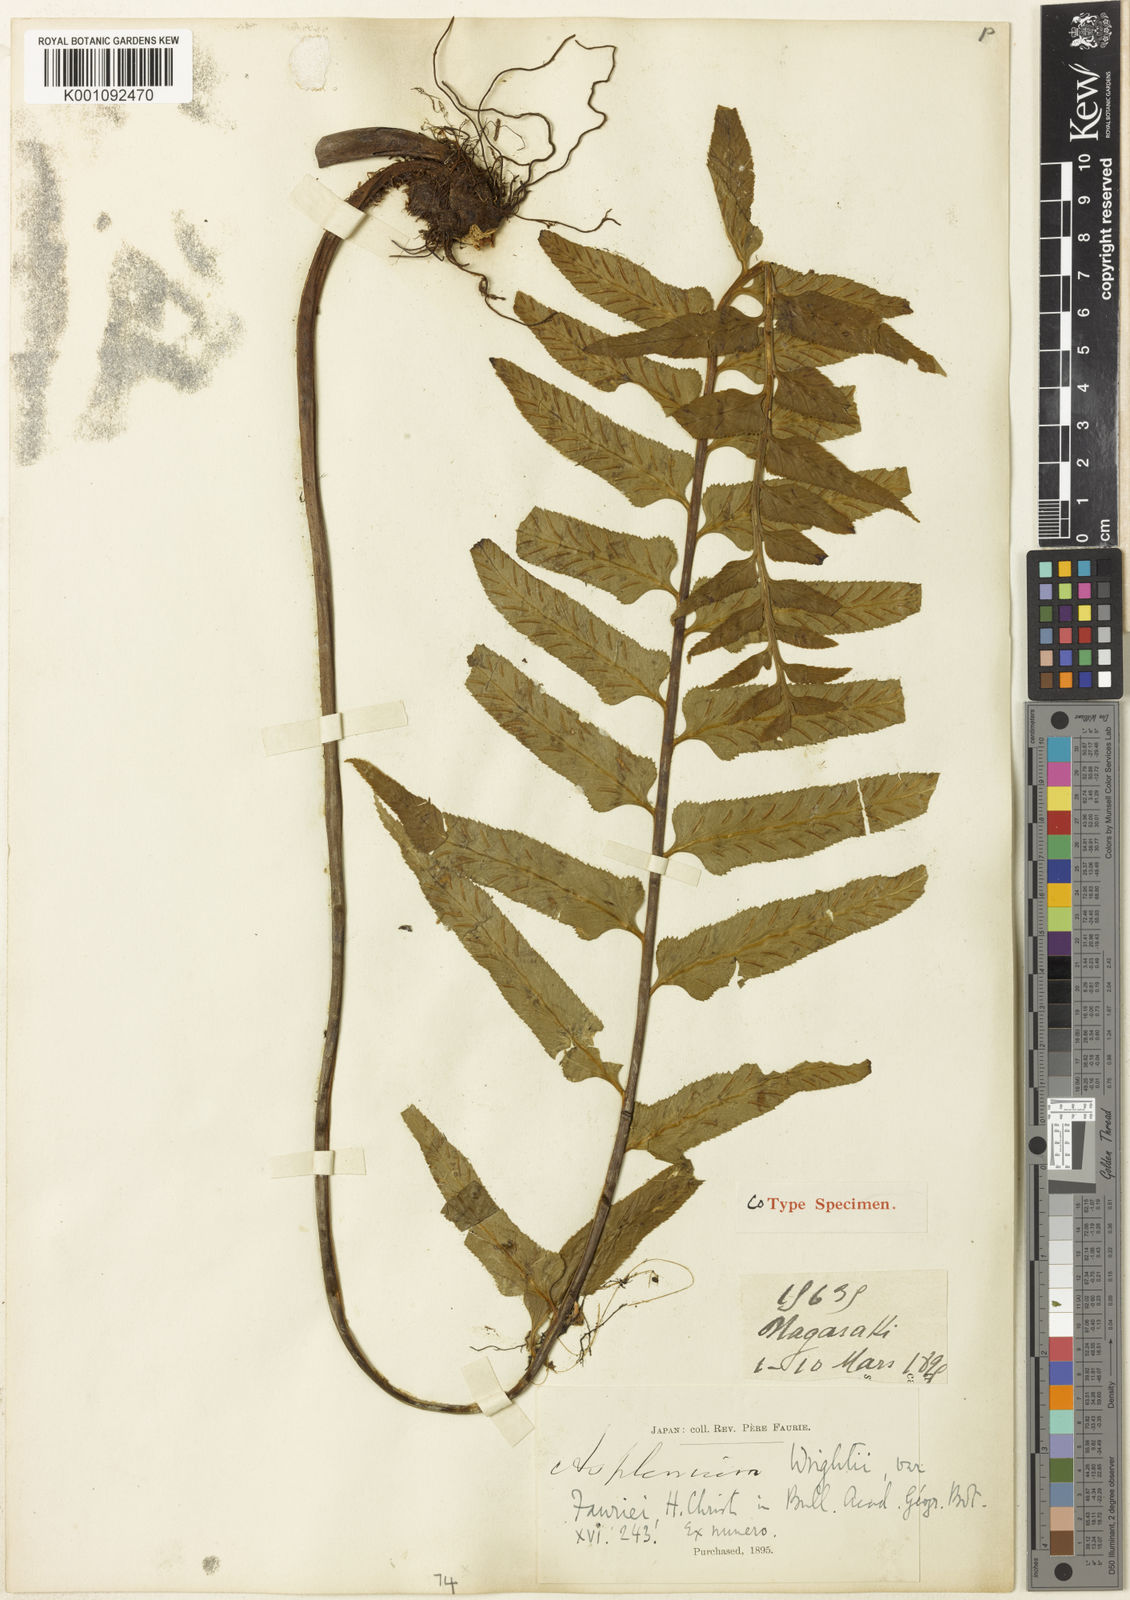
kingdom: Plantae
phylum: Tracheophyta
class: Polypodiopsida
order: Polypodiales
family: Aspleniaceae
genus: Asplenium
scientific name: Asplenium
